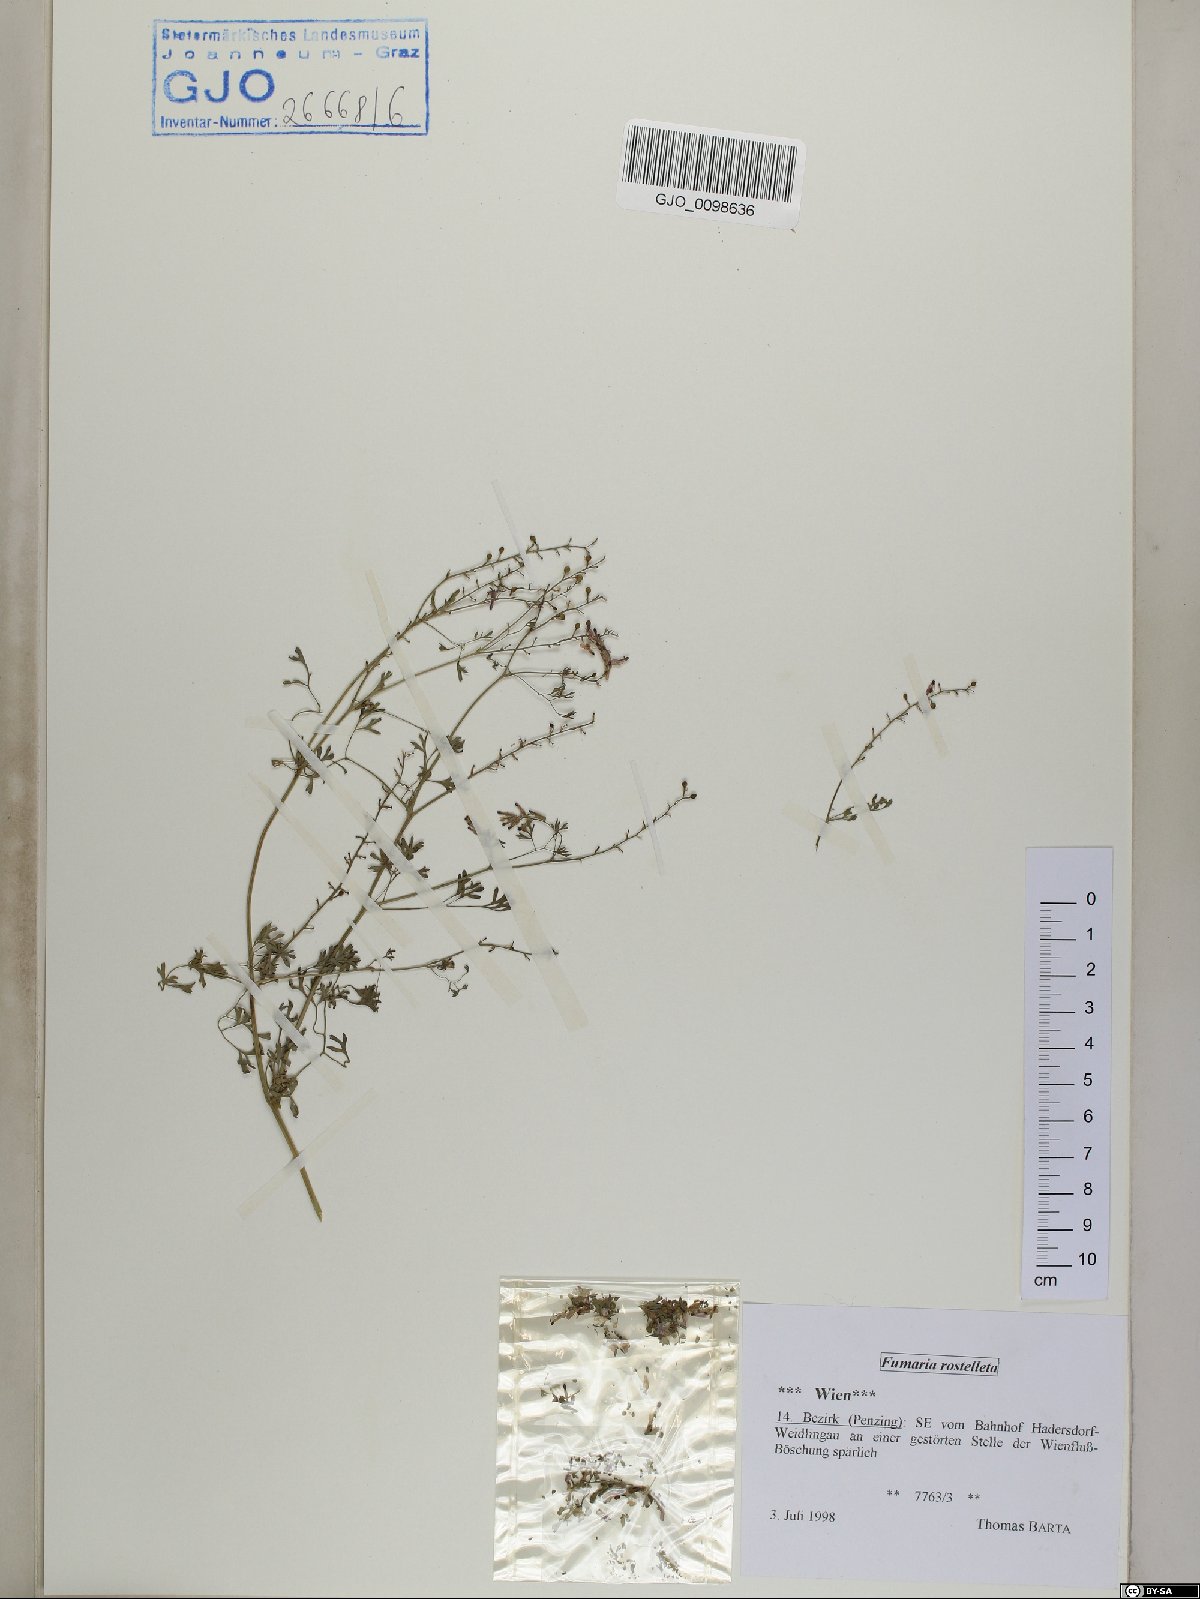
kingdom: Plantae
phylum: Tracheophyta
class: Magnoliopsida
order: Ranunculales
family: Papaveraceae
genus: Fumaria
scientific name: Fumaria rostellata
